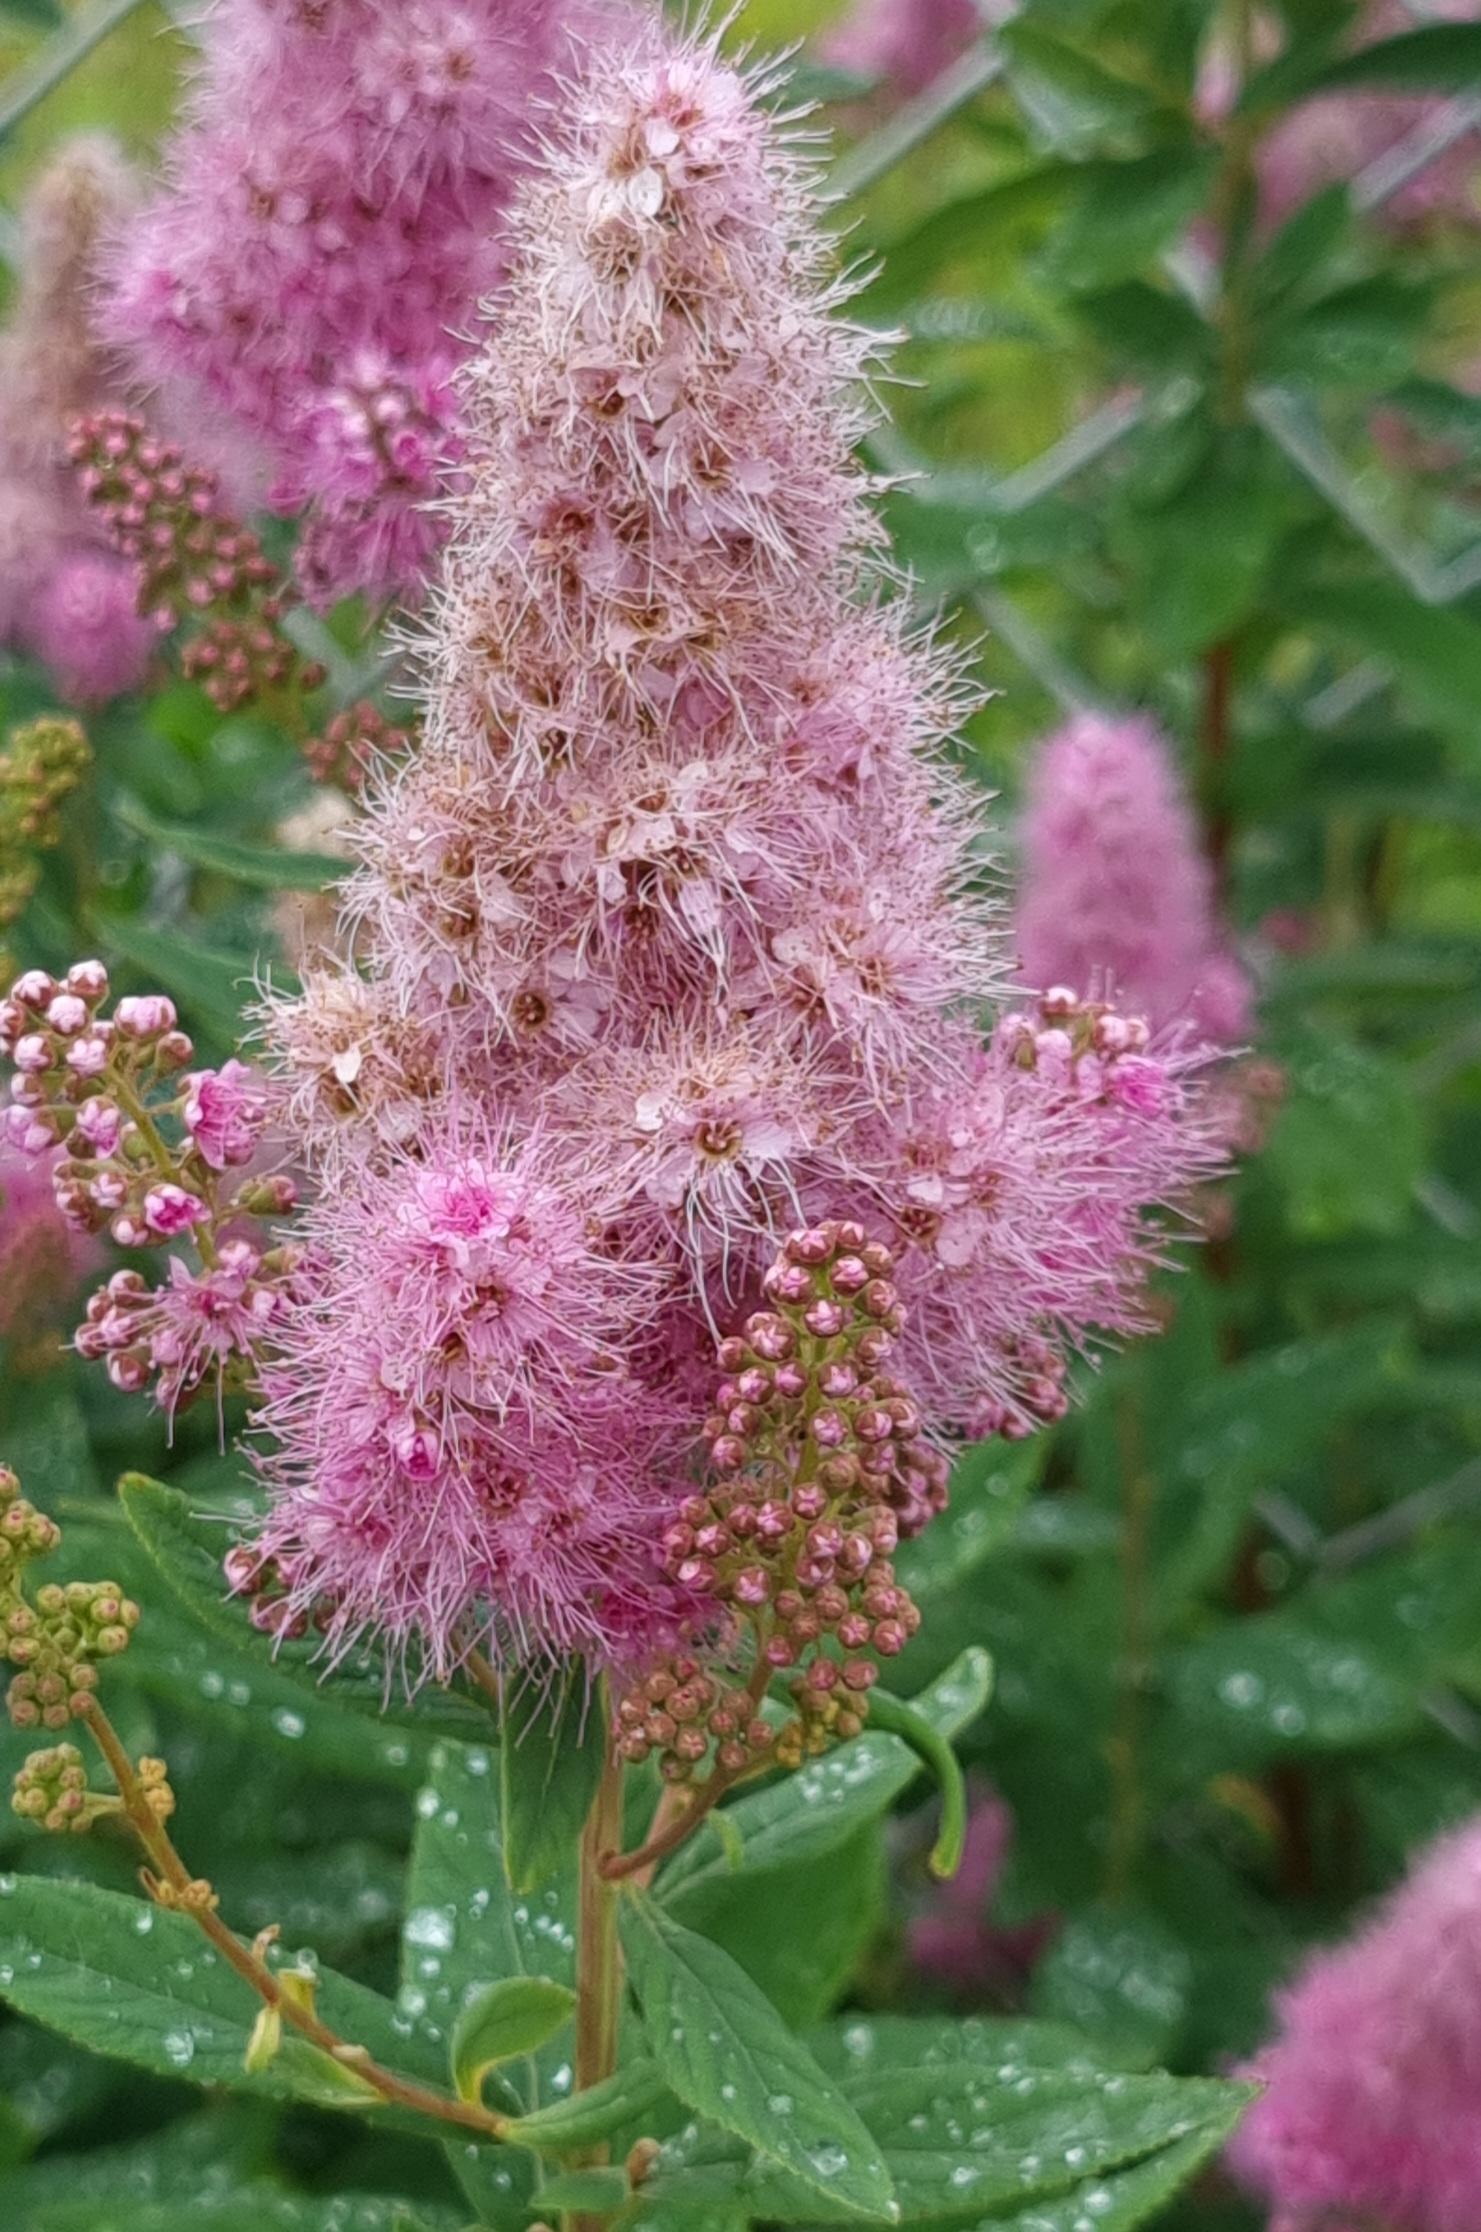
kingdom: Plantae
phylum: Tracheophyta
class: Magnoliopsida
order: Rosales
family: Rosaceae
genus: Spiraea
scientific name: Spiraea
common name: Spiræaslægten
